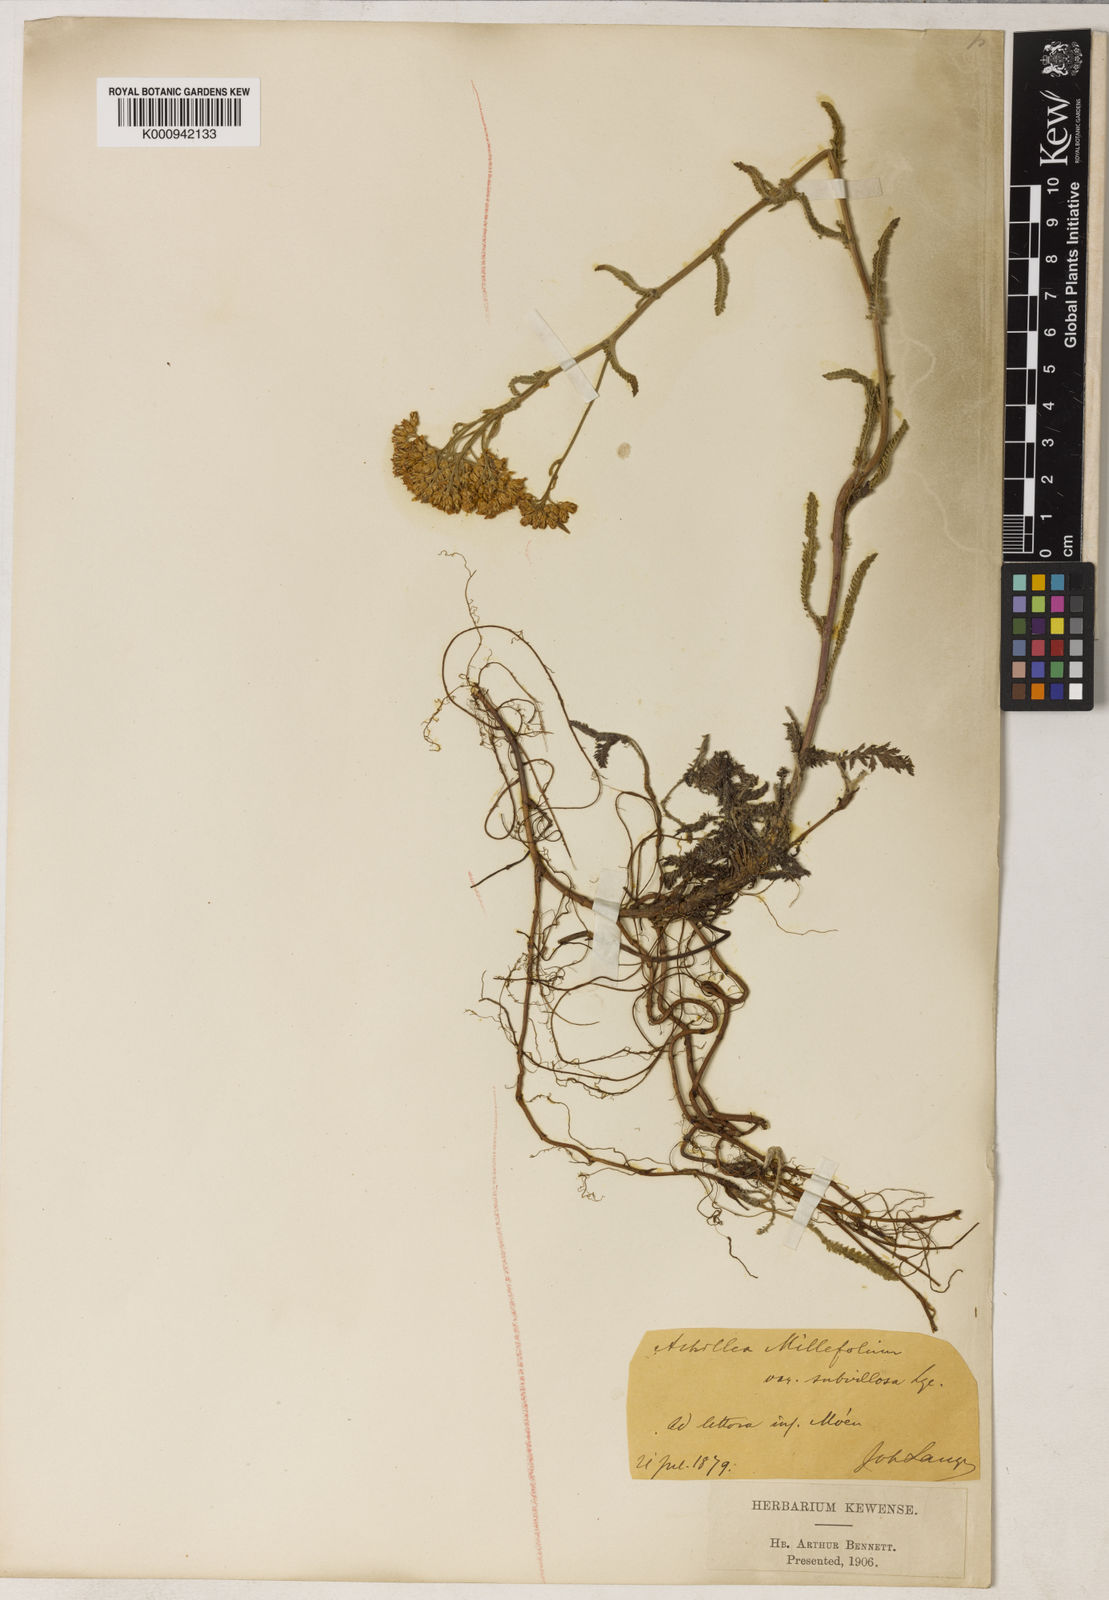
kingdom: Plantae
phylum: Tracheophyta
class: Magnoliopsida
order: Asterales
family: Asteraceae
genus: Achillea
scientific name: Achillea millefolium
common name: Yarrow
